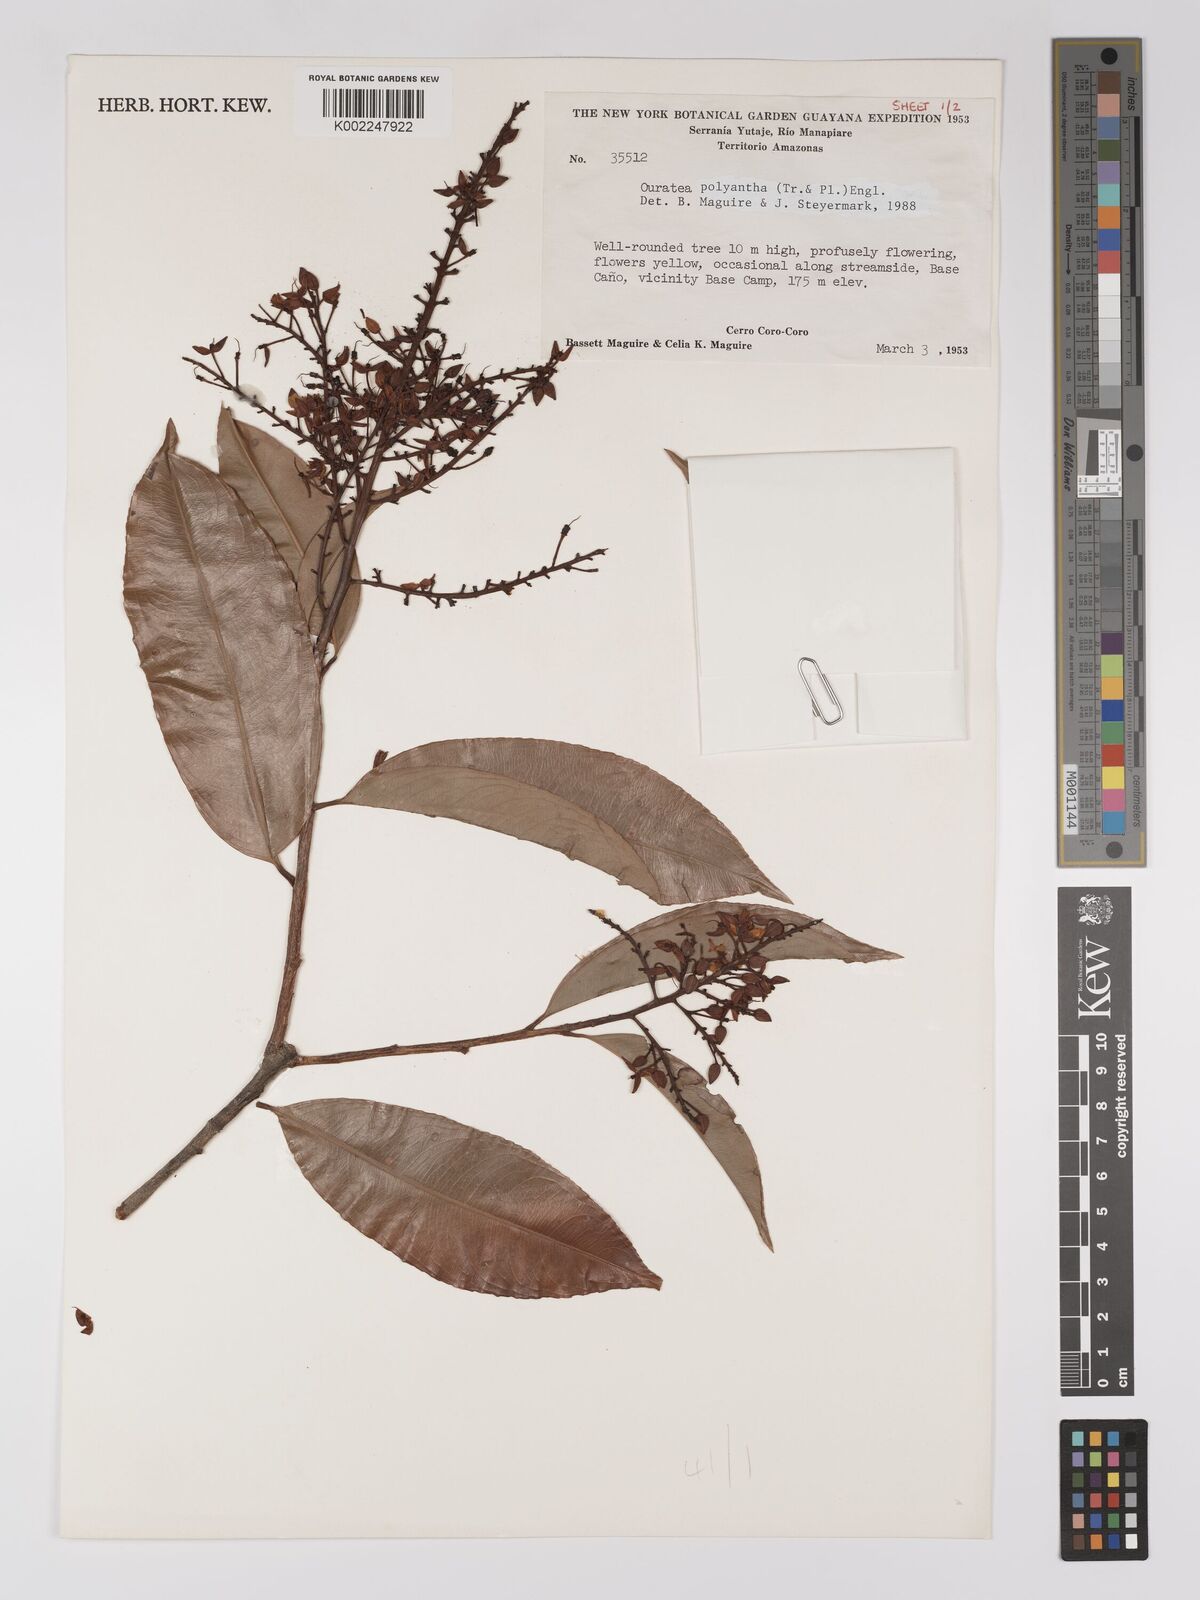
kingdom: Plantae
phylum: Tracheophyta
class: Magnoliopsida
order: Malpighiales
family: Ochnaceae
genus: Ouratea
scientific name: Ouratea polyantha
